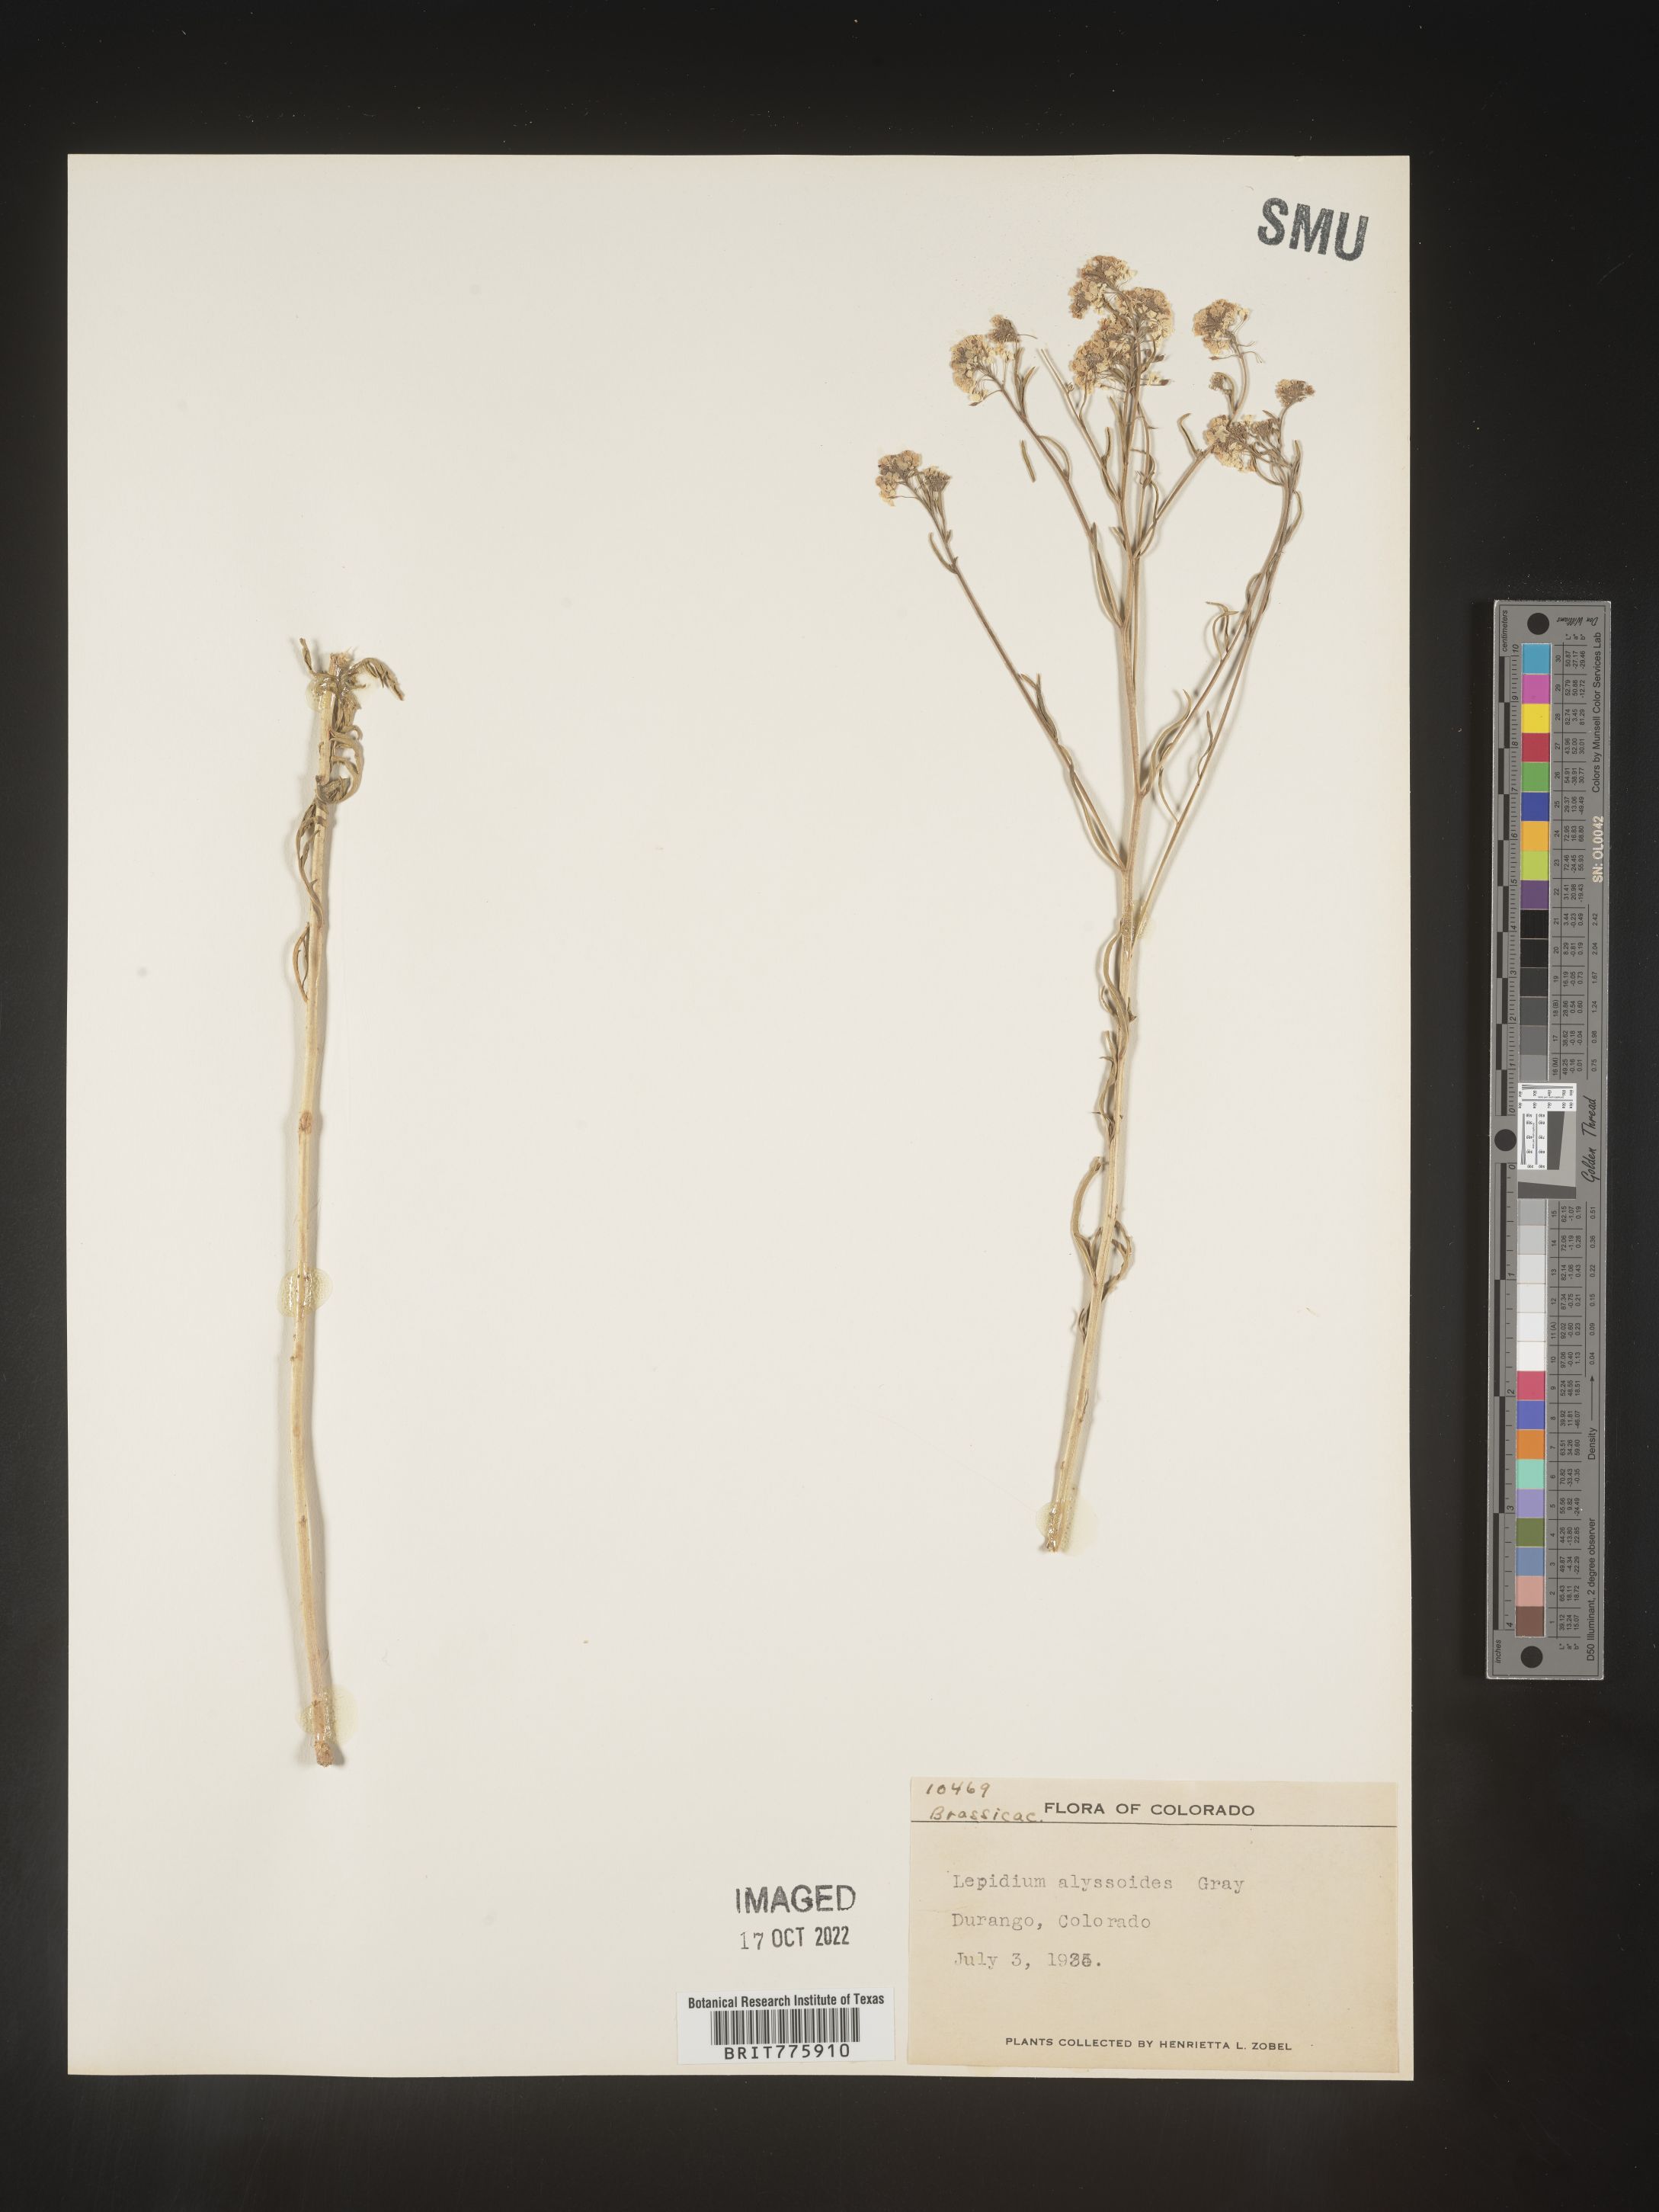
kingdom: Plantae
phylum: Tracheophyta
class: Magnoliopsida
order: Brassicales
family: Brassicaceae
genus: Lepidium
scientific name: Lepidium
